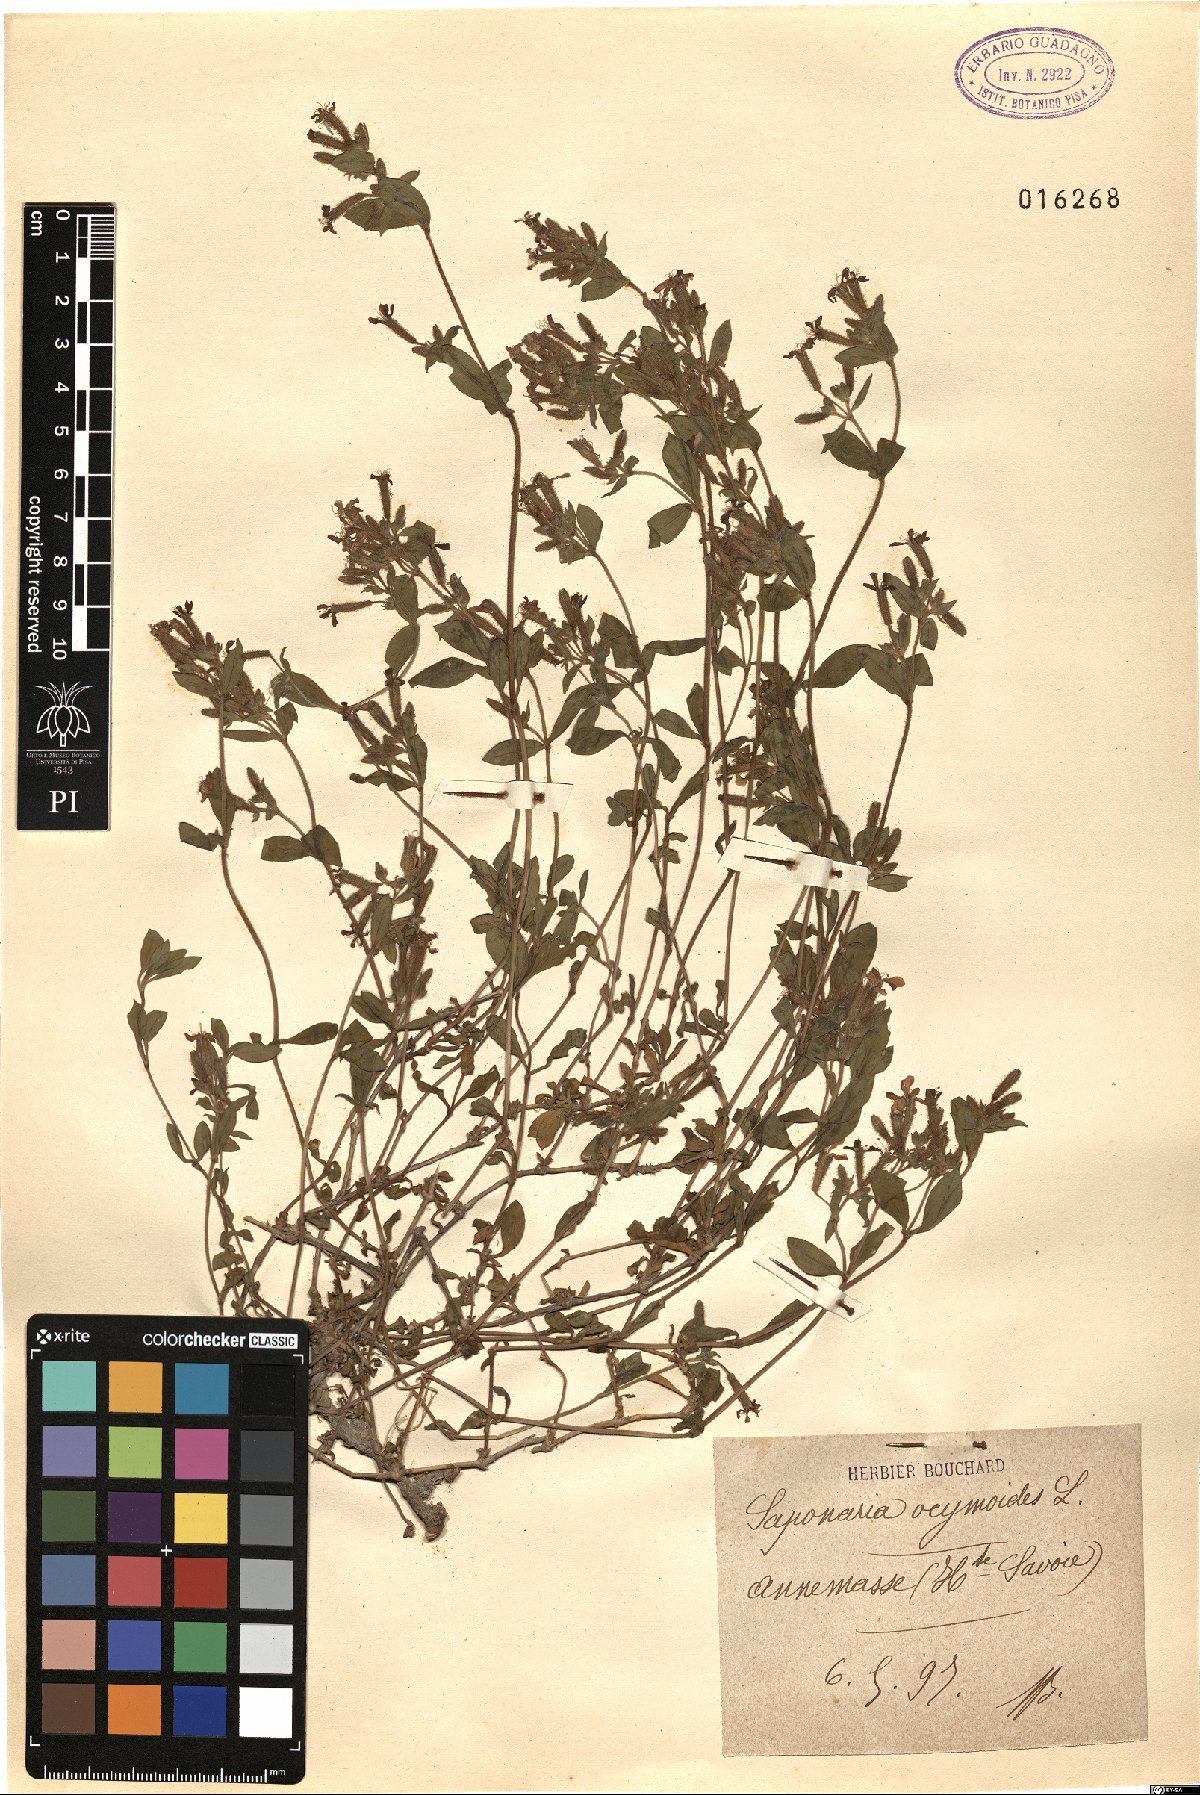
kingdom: Plantae
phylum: Tracheophyta
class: Magnoliopsida
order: Caryophyllales
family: Caryophyllaceae
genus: Saponaria
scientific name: Saponaria ocymoides
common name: Rock soapwort
